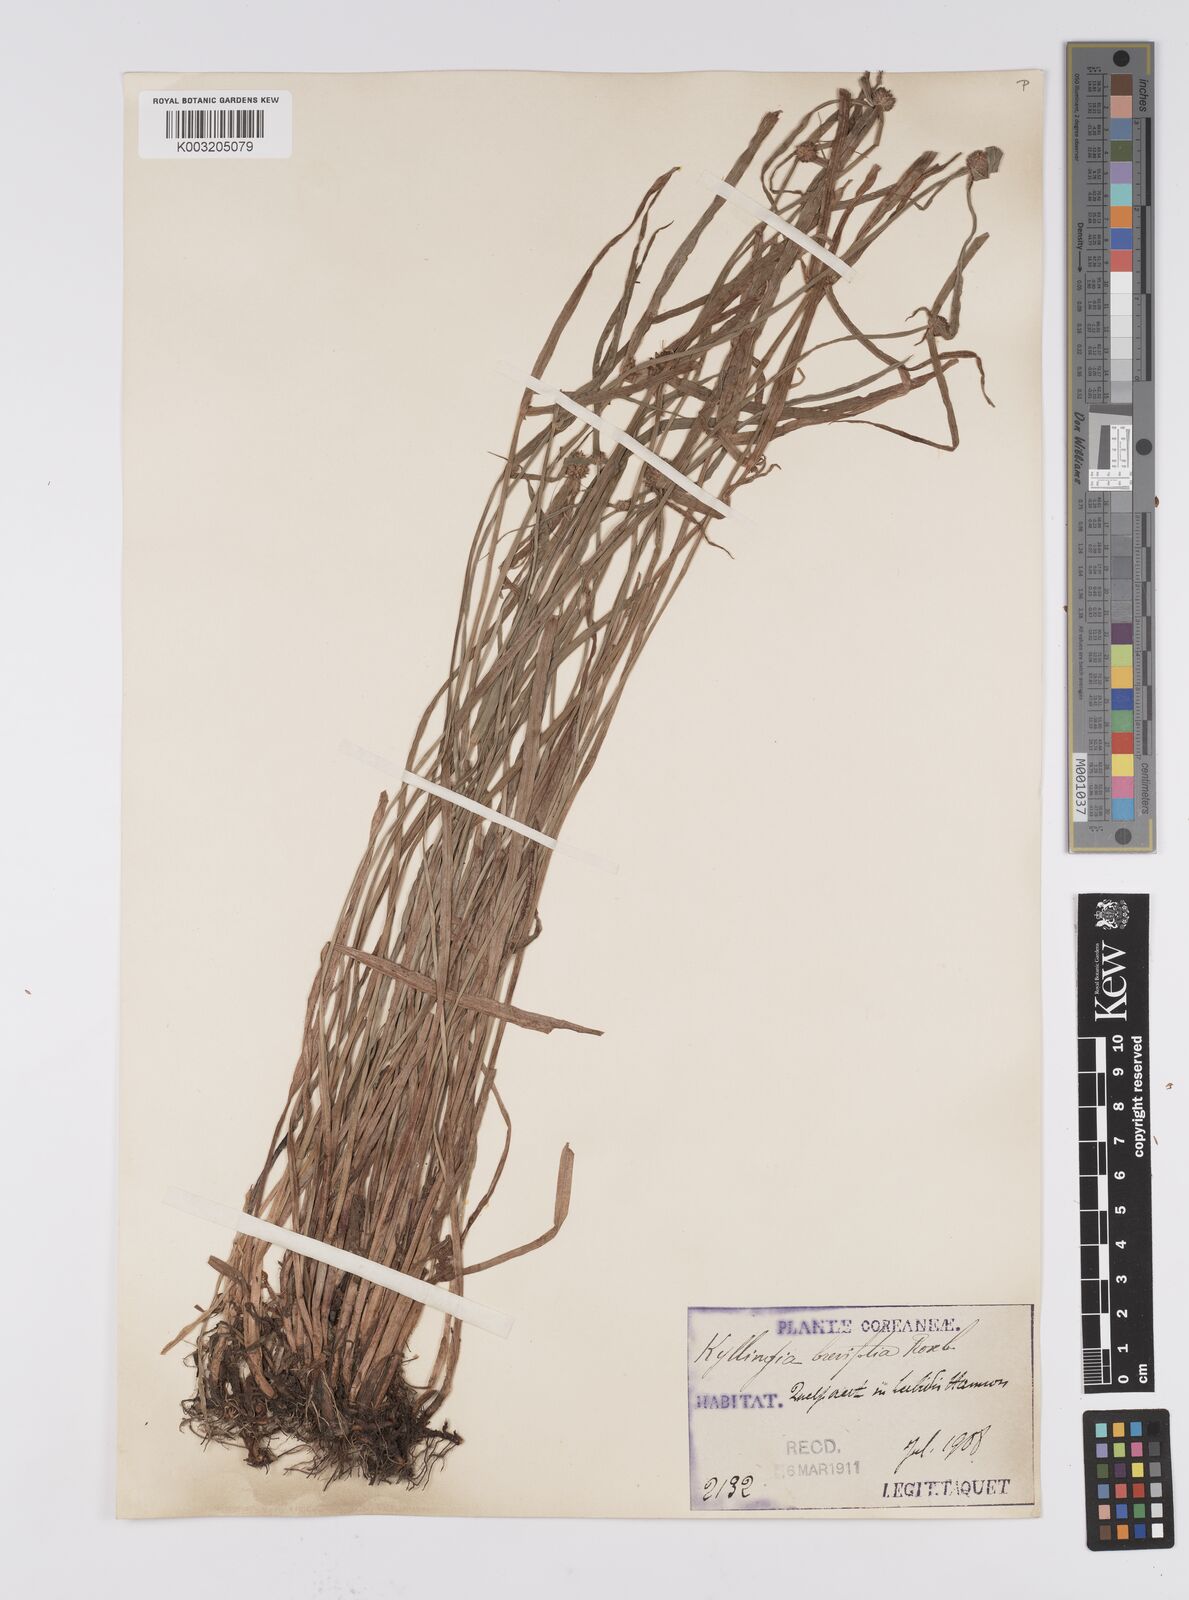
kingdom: Plantae
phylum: Tracheophyta
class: Liliopsida
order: Poales
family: Cyperaceae
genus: Cyperus
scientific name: Cyperus brevifolius
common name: Globe kyllinga
